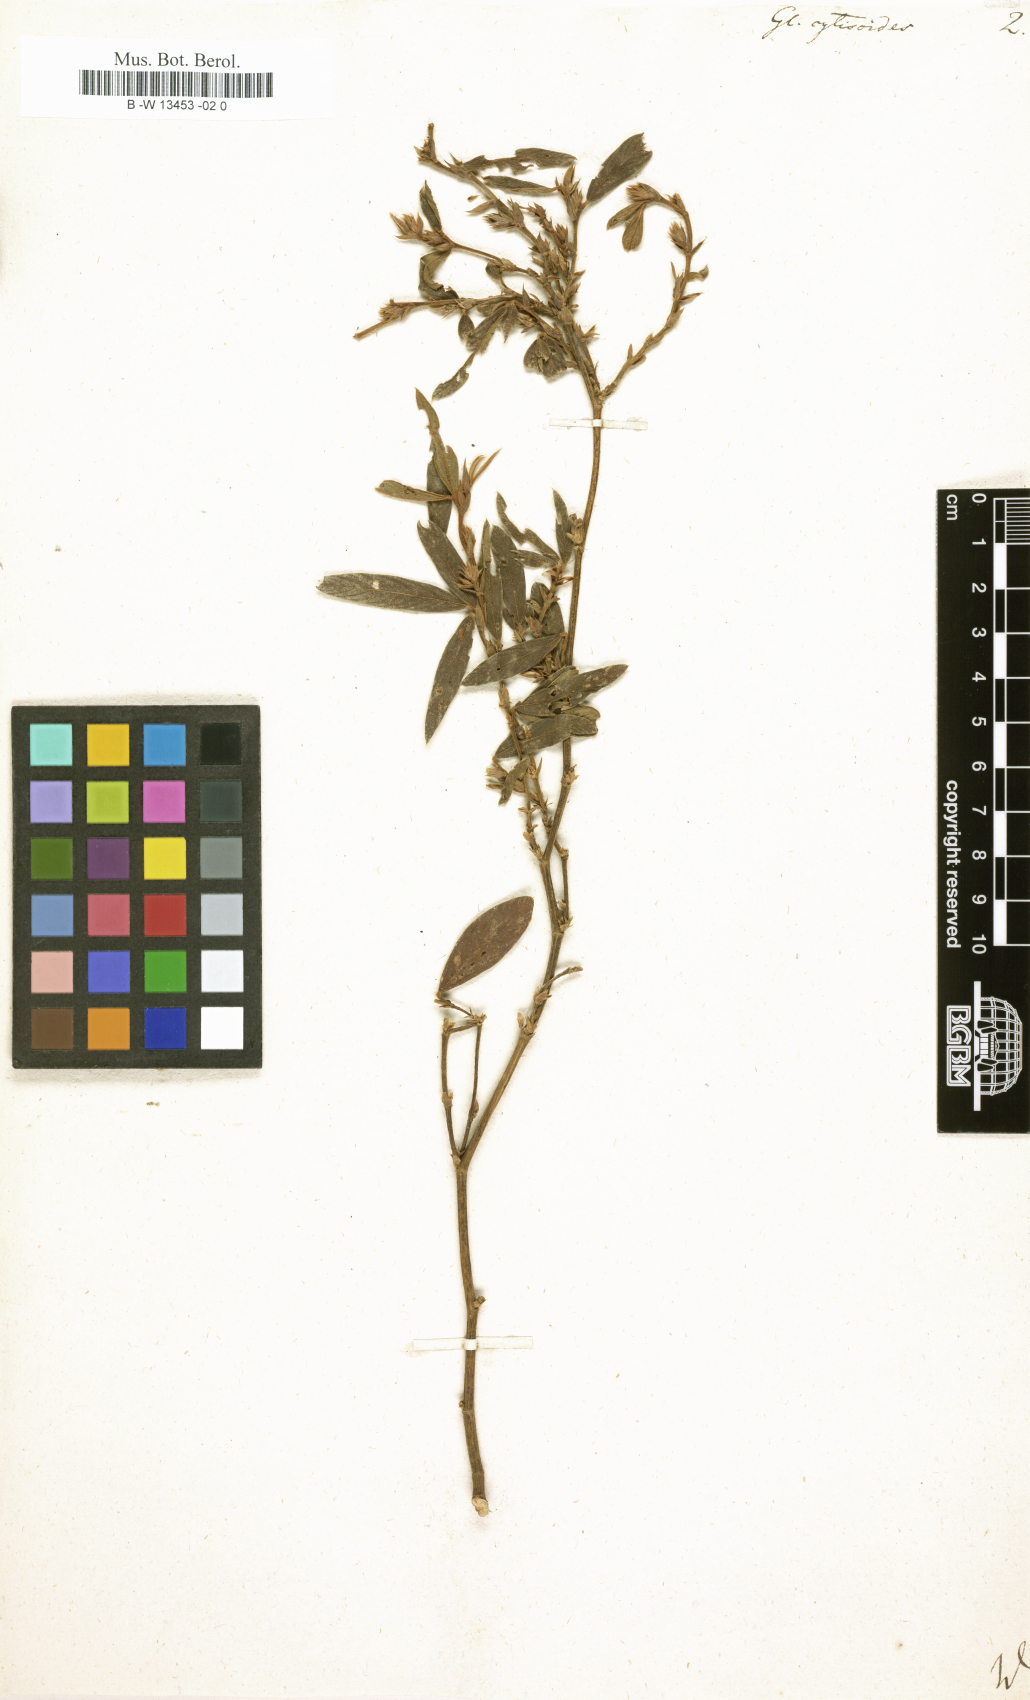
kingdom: Plantae
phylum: Tracheophyta
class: Magnoliopsida
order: Fabales
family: Fabaceae
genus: Glycine
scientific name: Glycine
